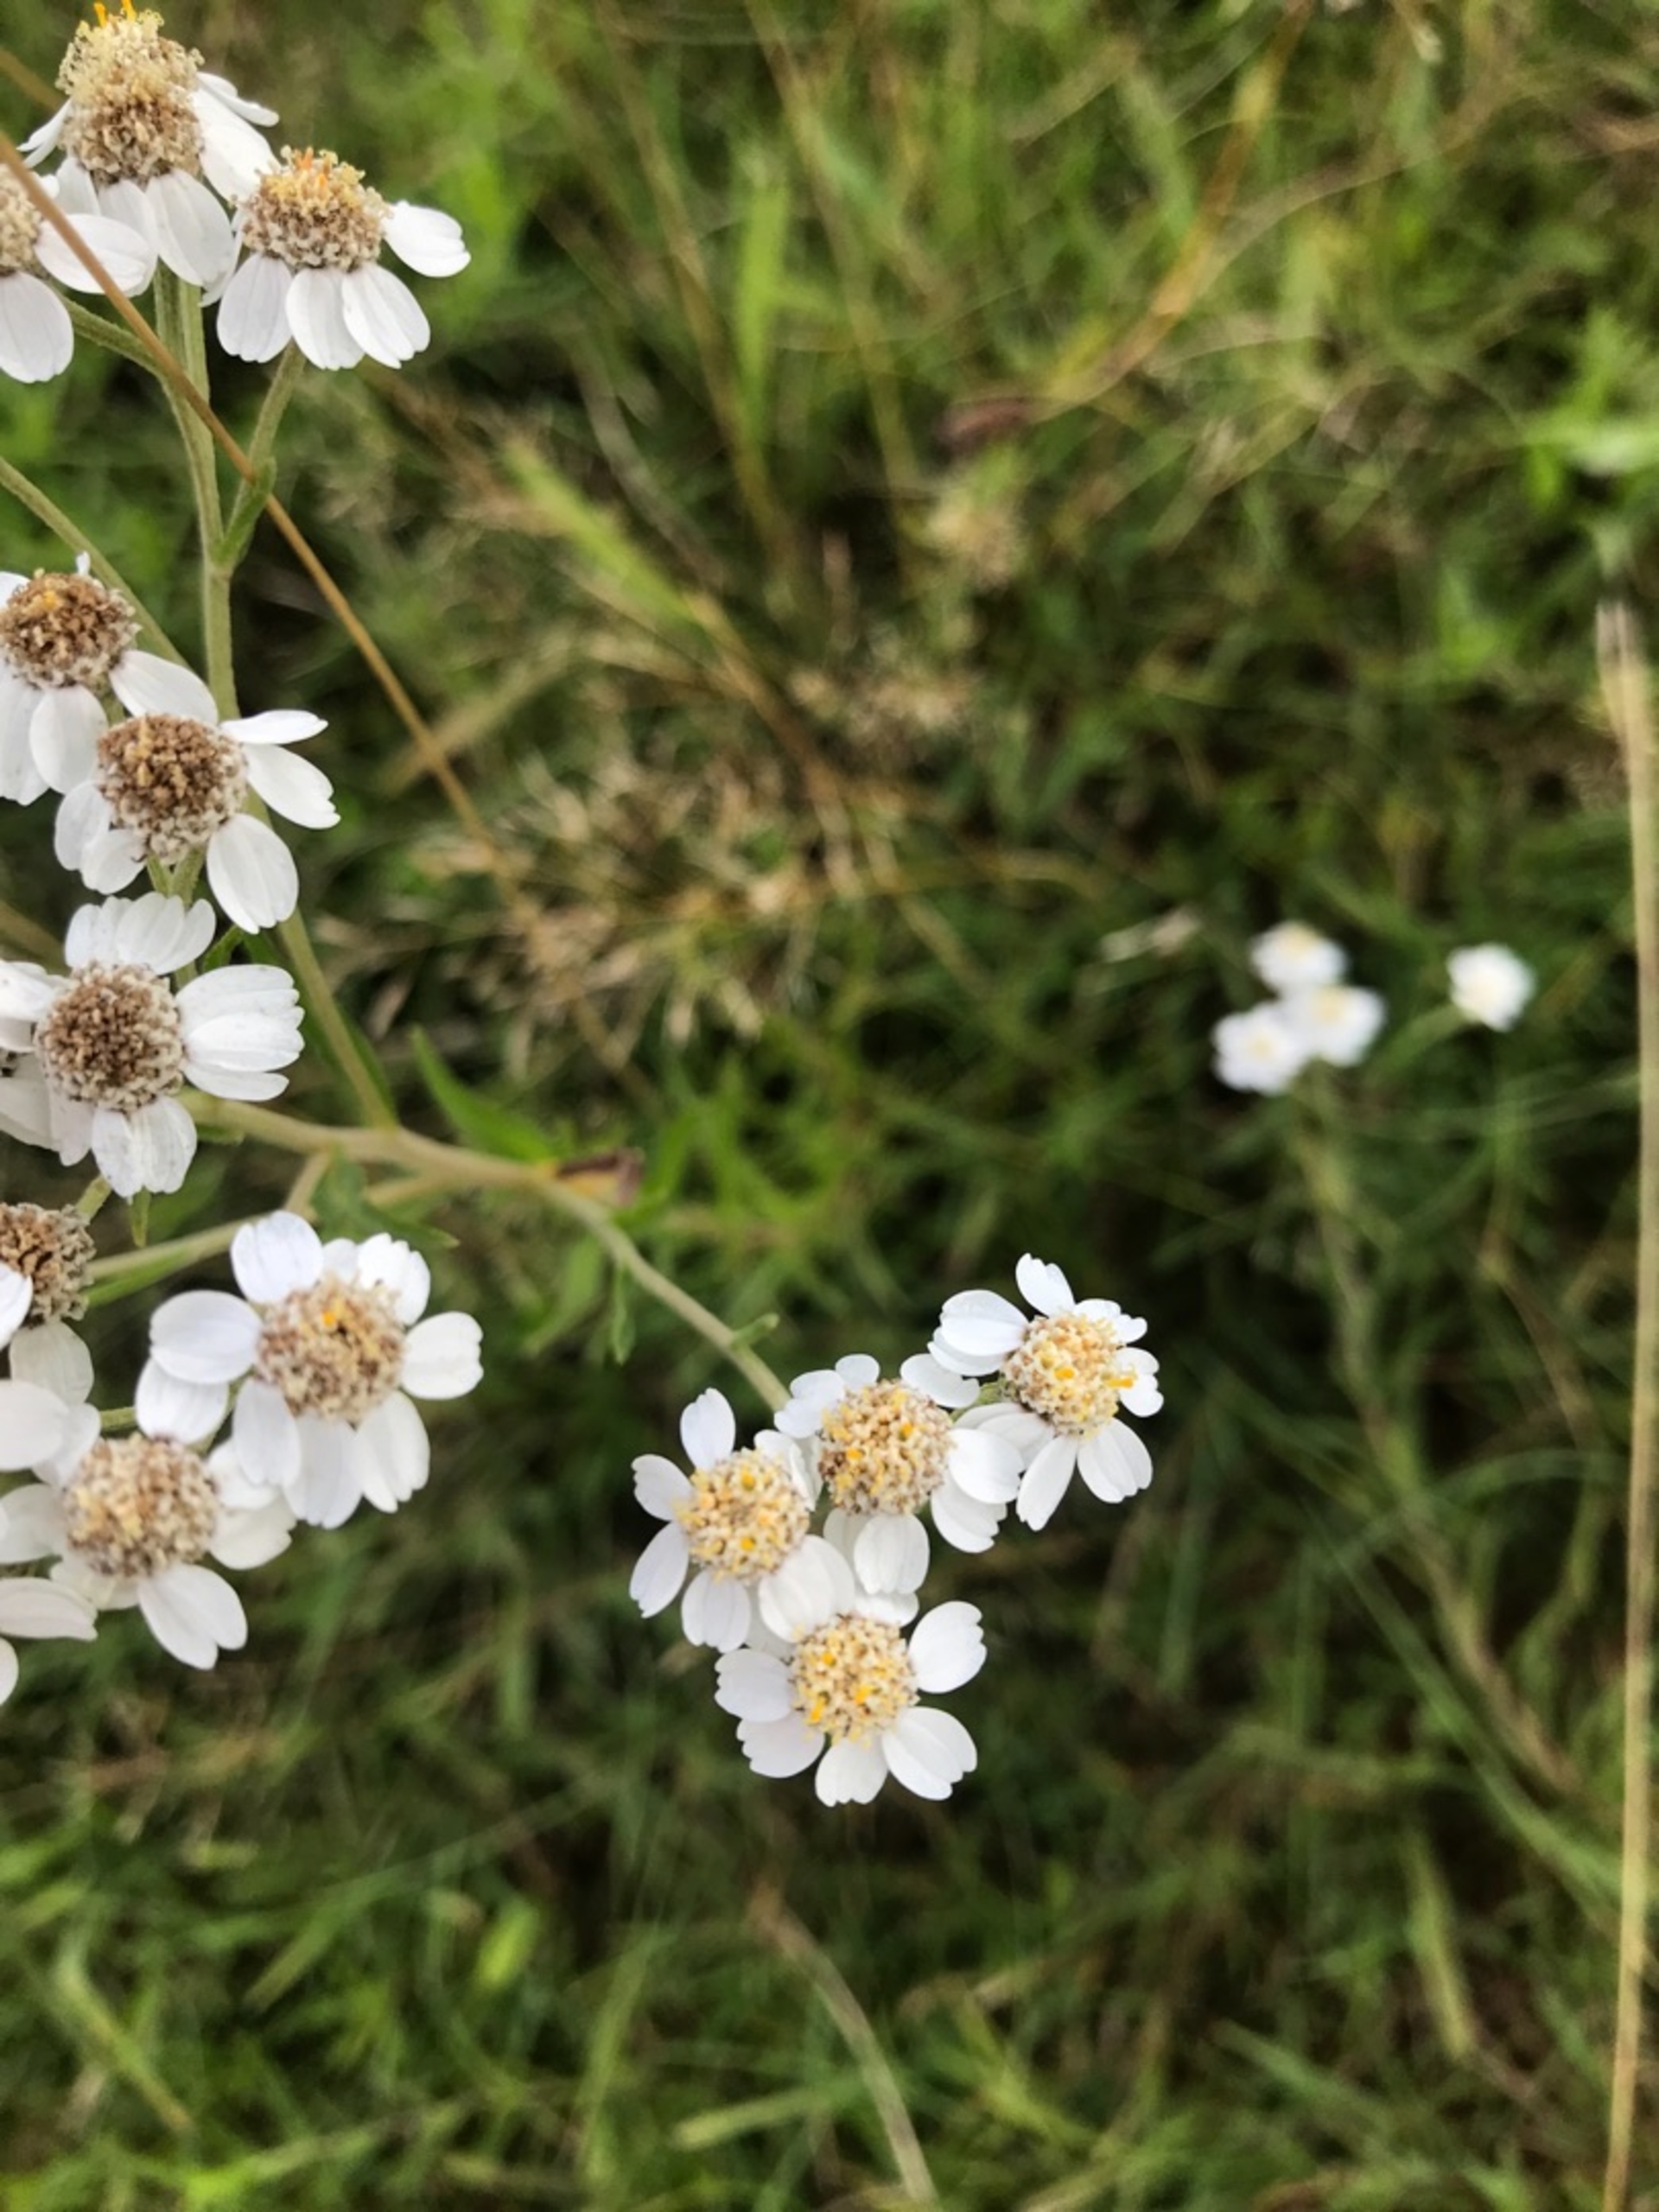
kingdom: Plantae
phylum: Tracheophyta
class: Magnoliopsida
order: Asterales
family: Asteraceae
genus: Achillea
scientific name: Achillea ptarmica
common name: Nyse-røllike
